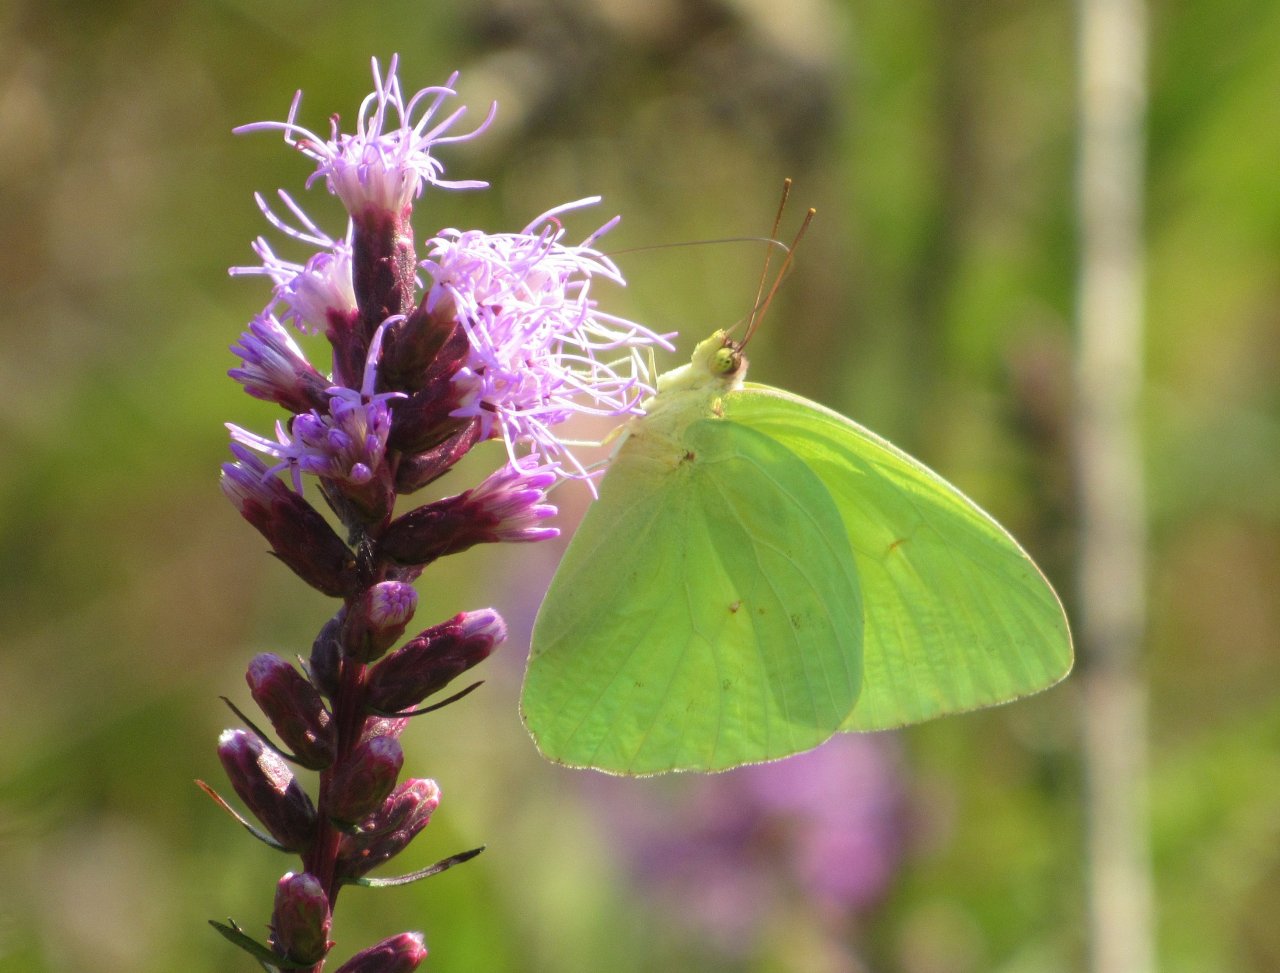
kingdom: Animalia
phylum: Arthropoda
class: Insecta
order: Lepidoptera
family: Pieridae
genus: Phoebis
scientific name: Phoebis sennae
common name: Cloudless Sulphur
